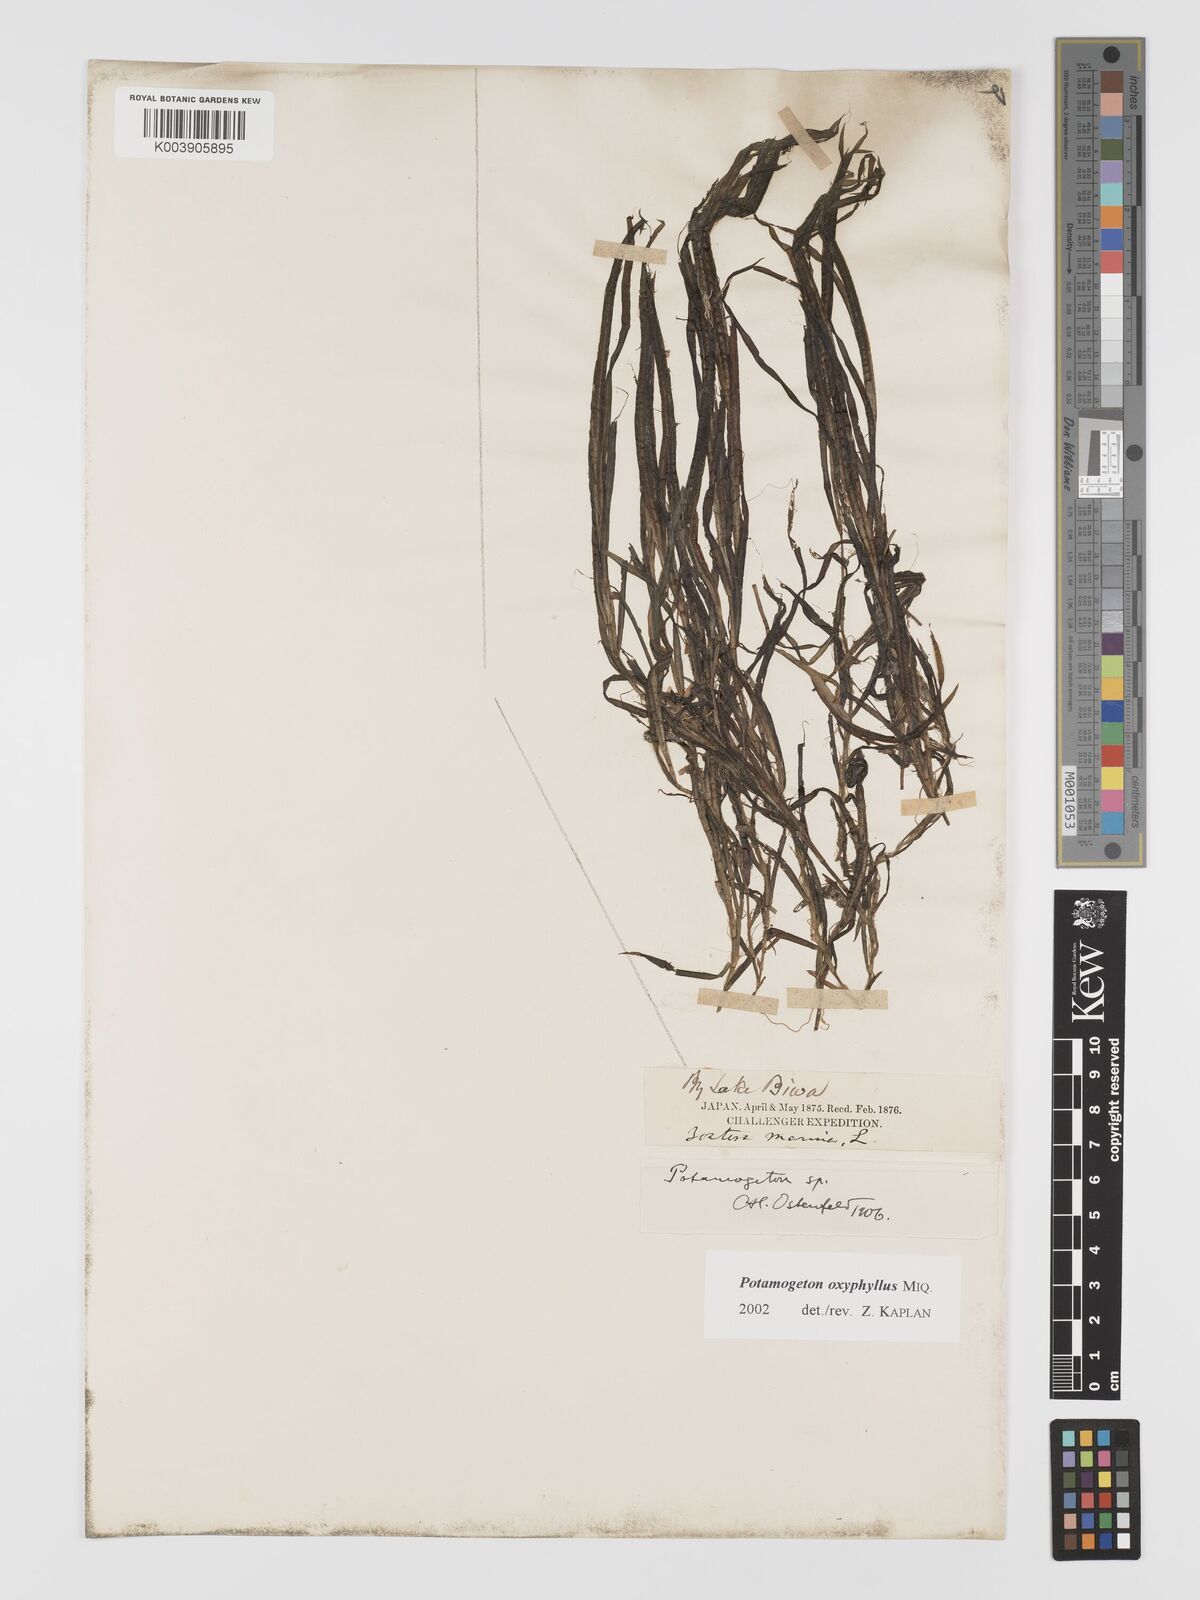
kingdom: Plantae
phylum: Tracheophyta
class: Liliopsida
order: Alismatales
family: Potamogetonaceae
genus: Potamogeton
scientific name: Potamogeton oxyphyllus
